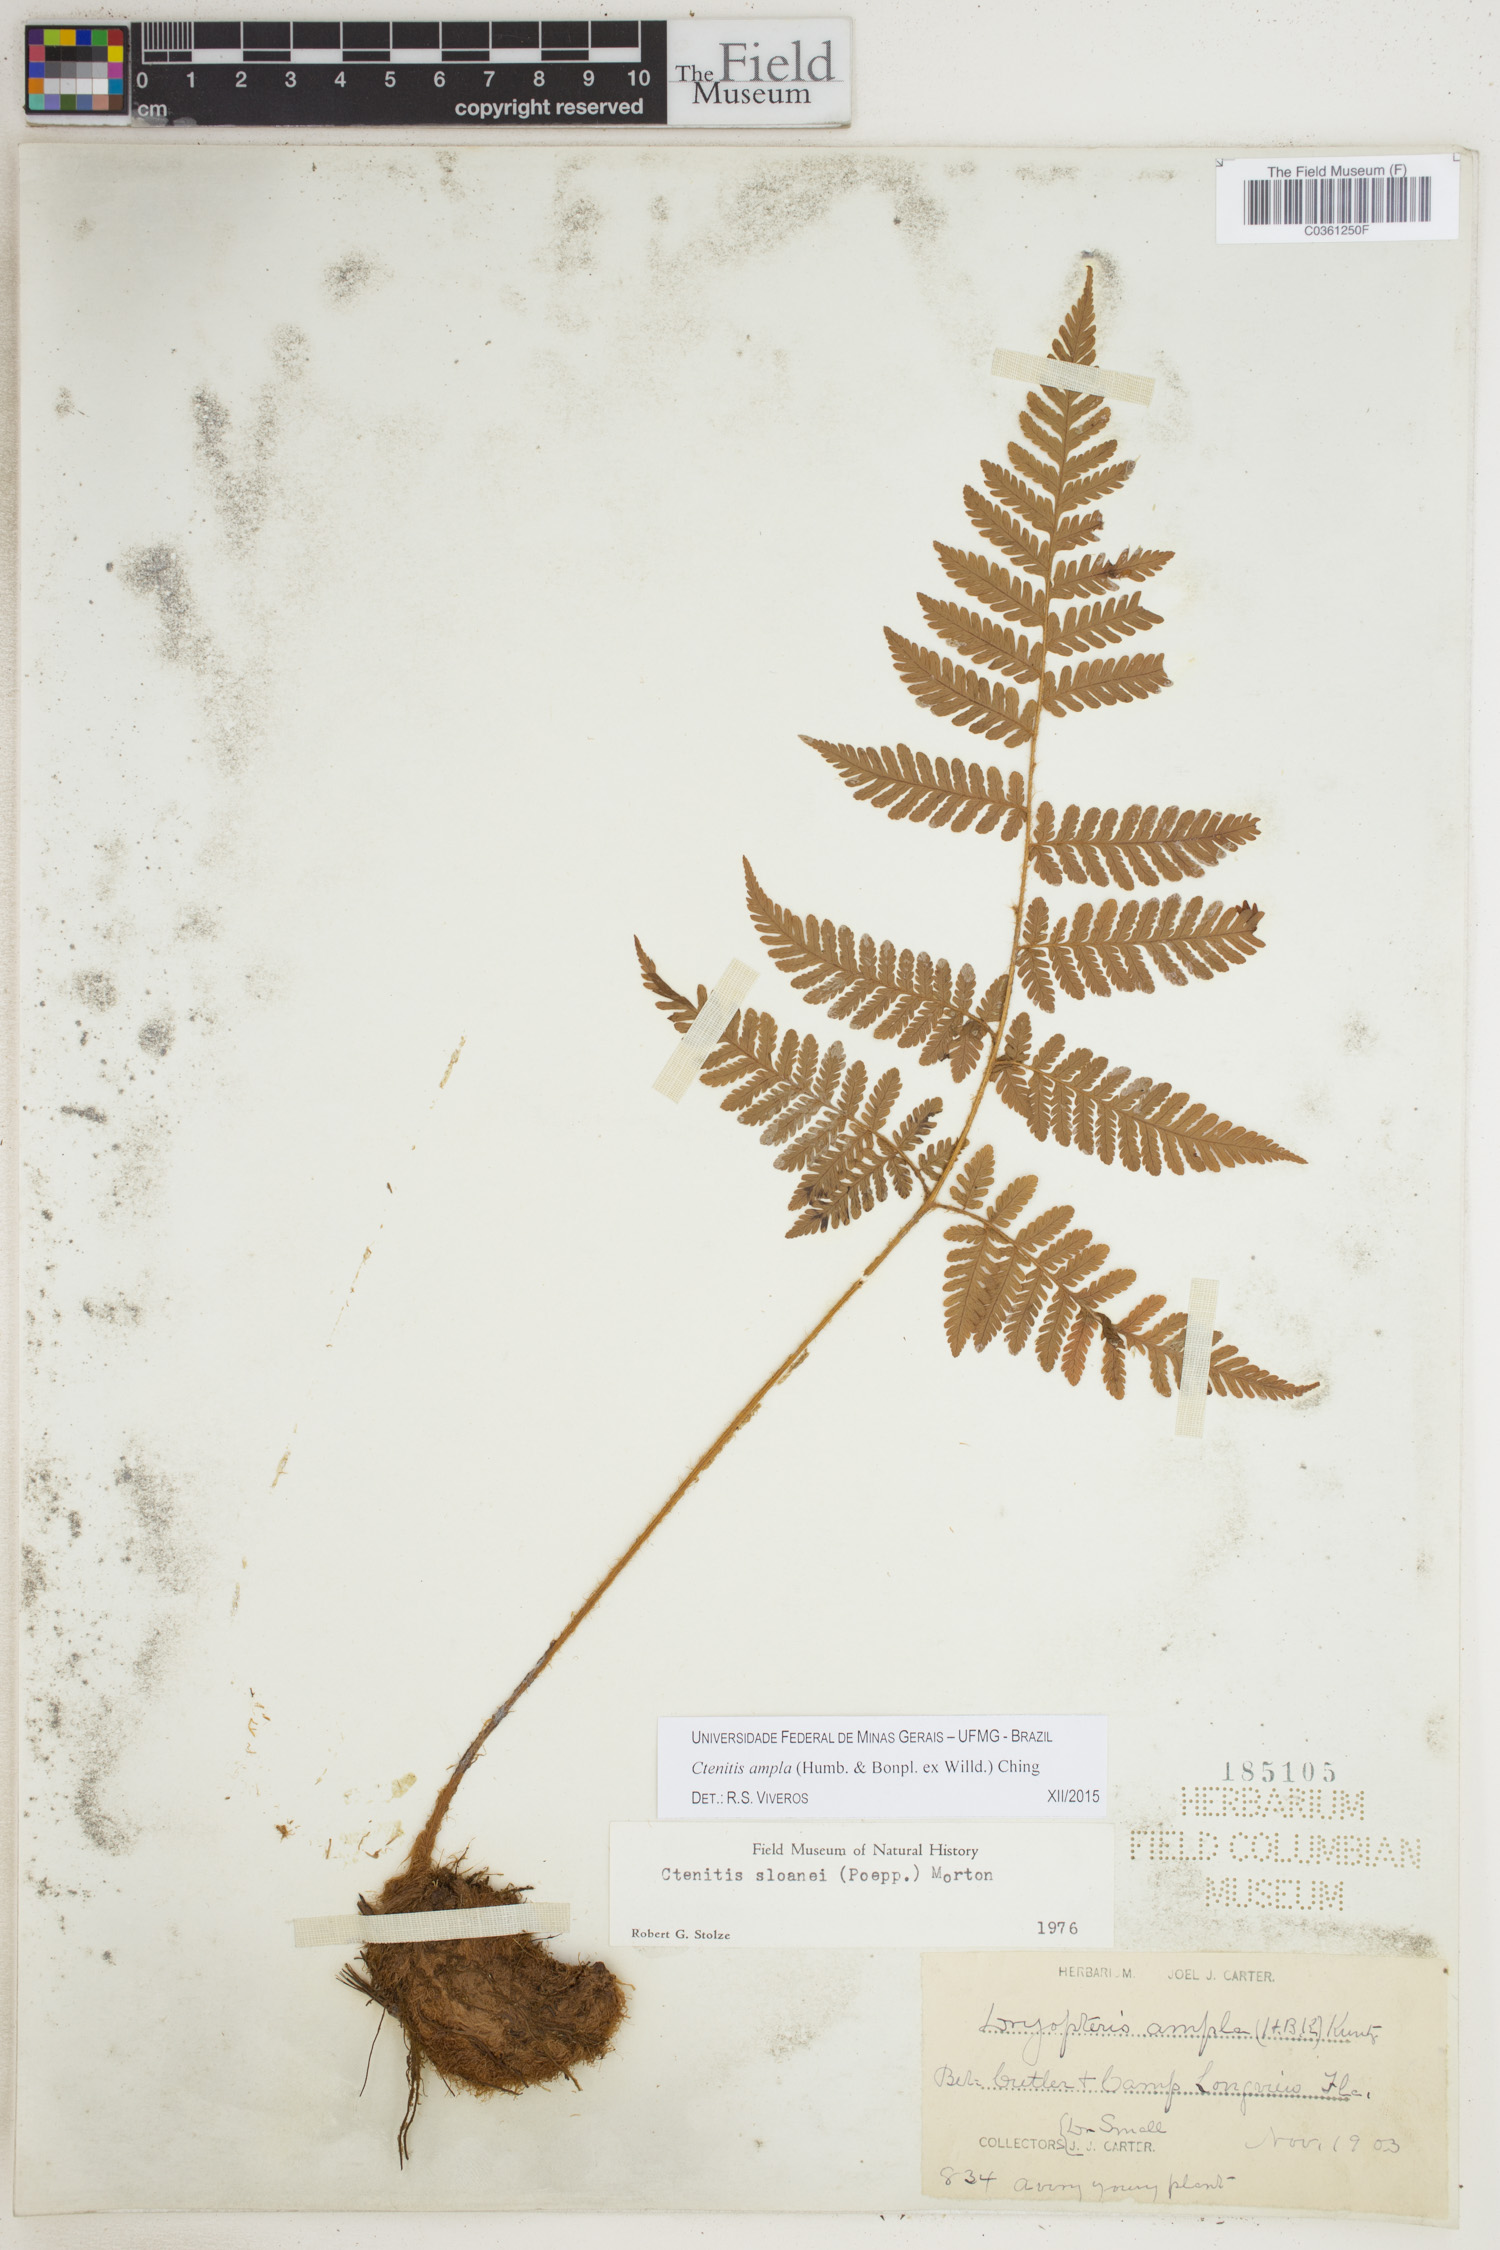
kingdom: Plantae
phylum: Tracheophyta
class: Polypodiopsida
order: Polypodiales
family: Dryopteridaceae
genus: Ctenitis
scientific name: Ctenitis sloanei
